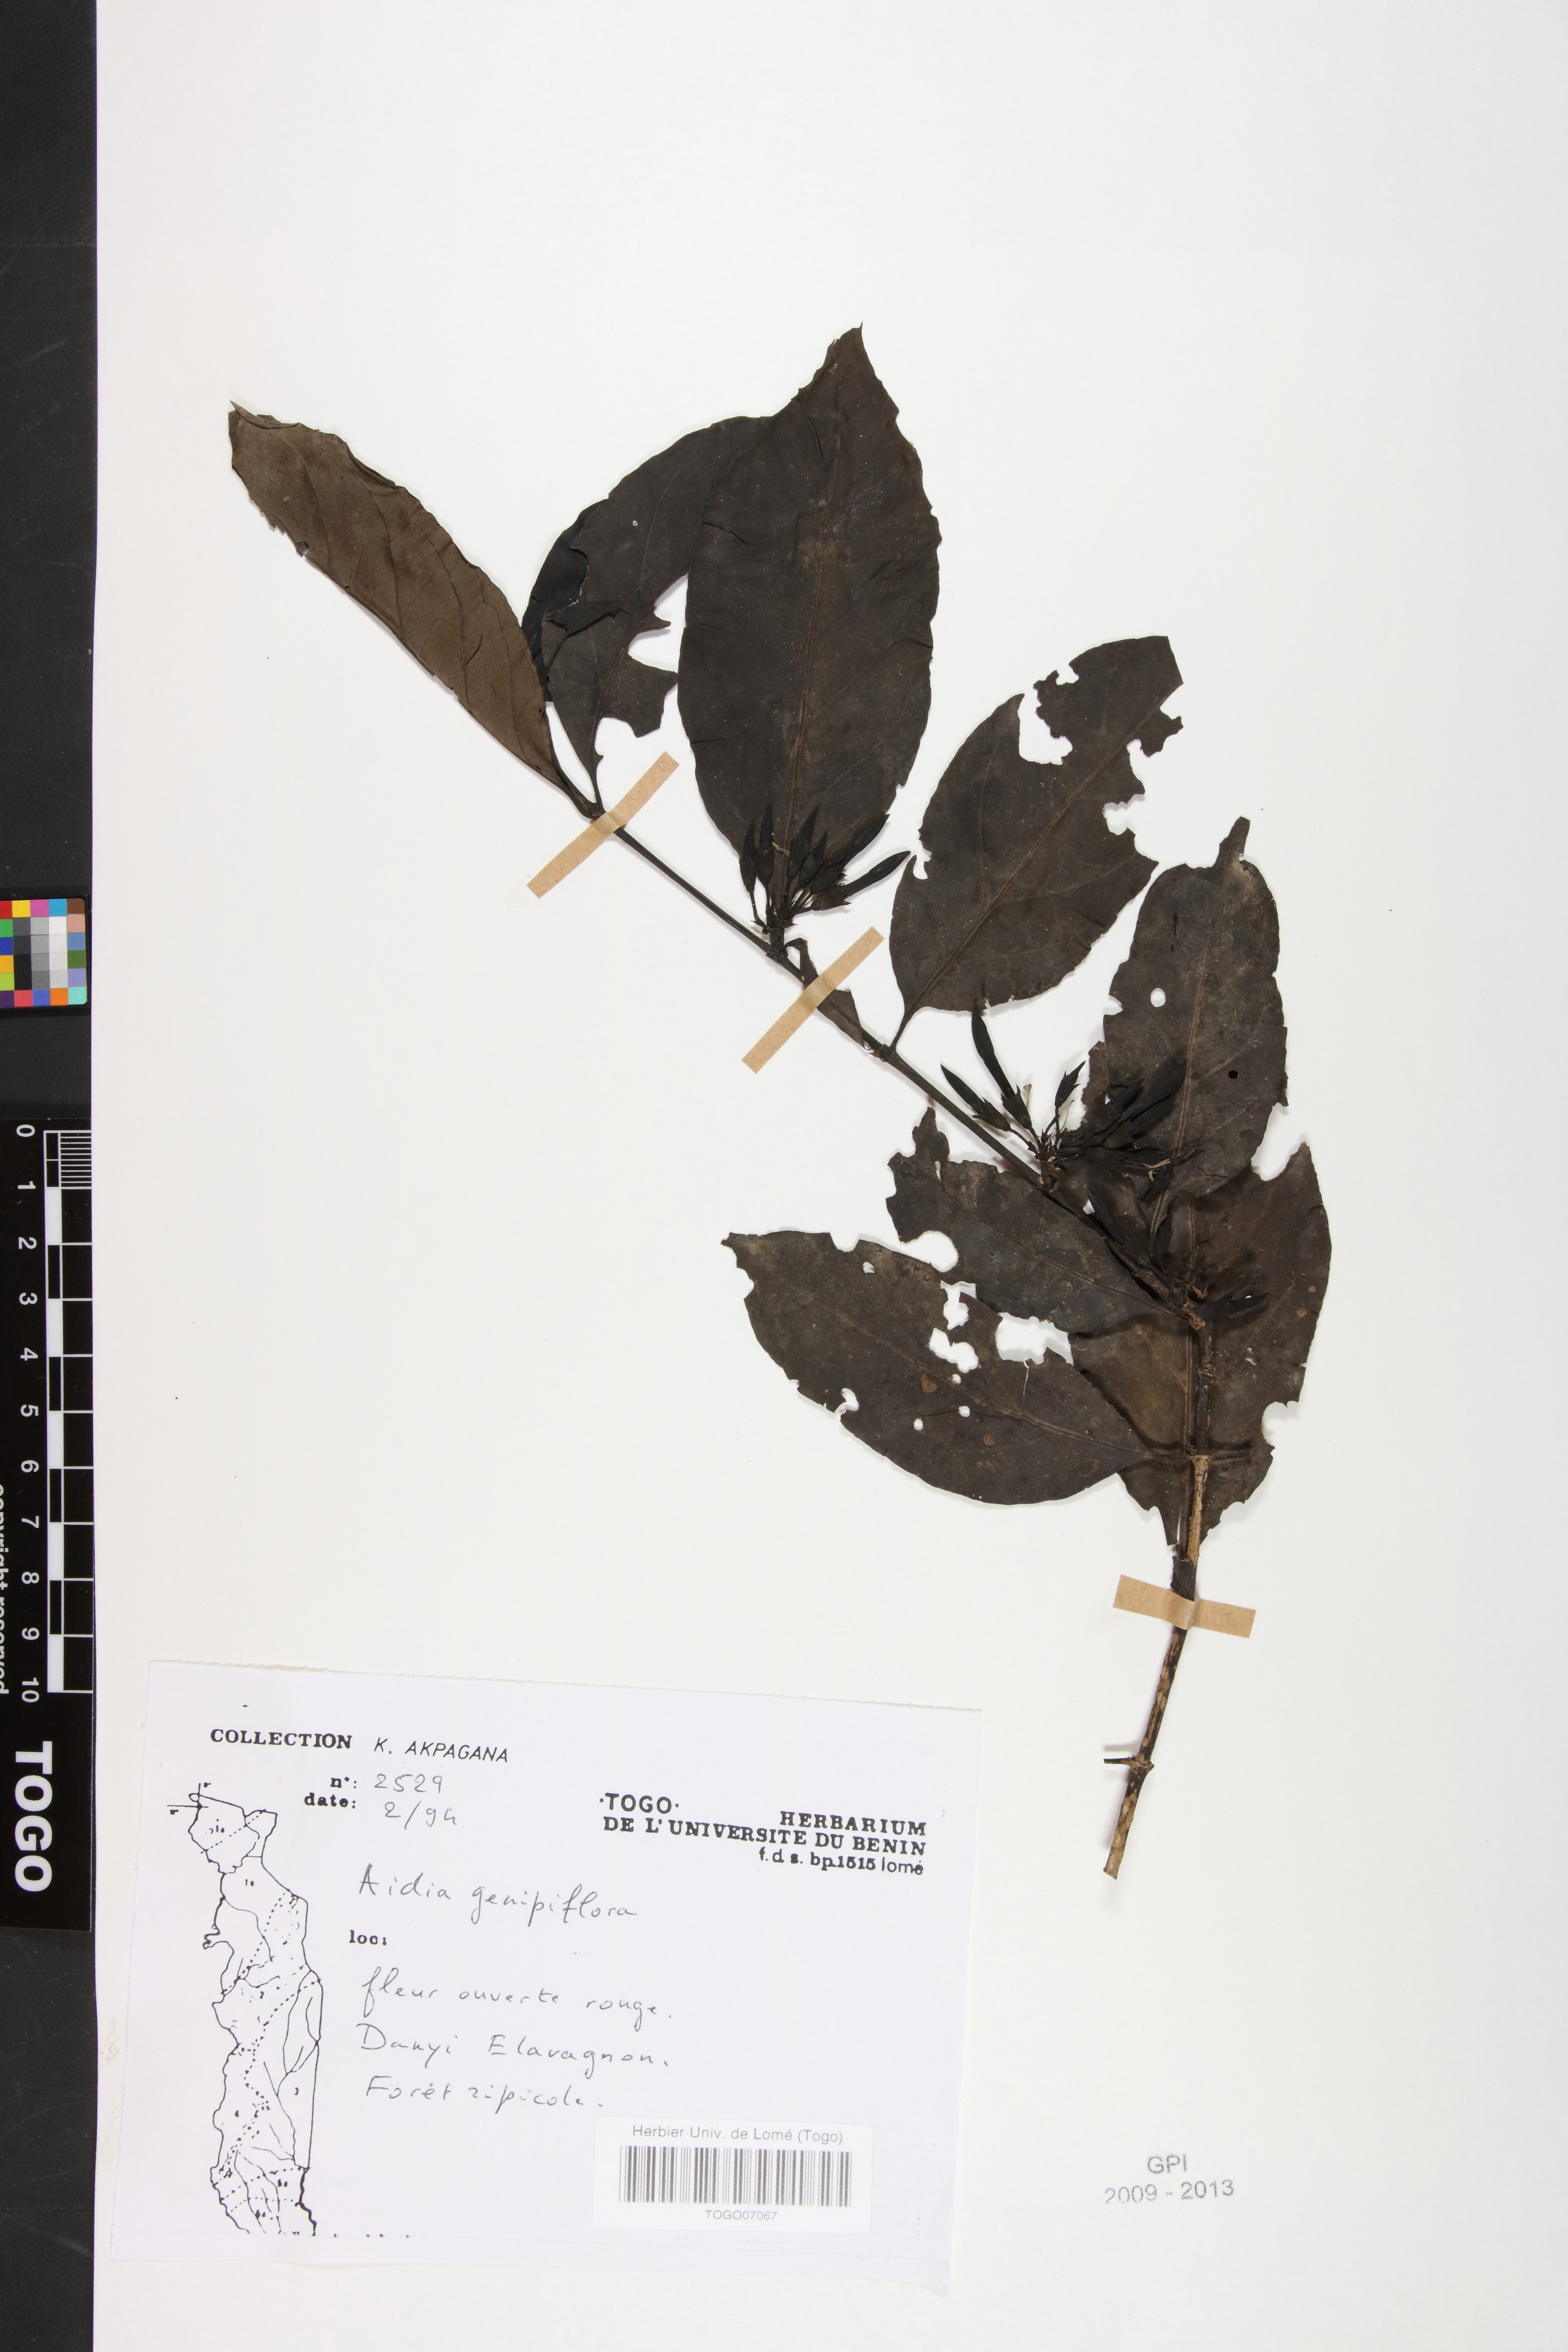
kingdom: Plantae
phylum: Tracheophyta
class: Magnoliopsida
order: Gentianales
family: Rubiaceae
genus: Aidia
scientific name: Aidia genipiflora
